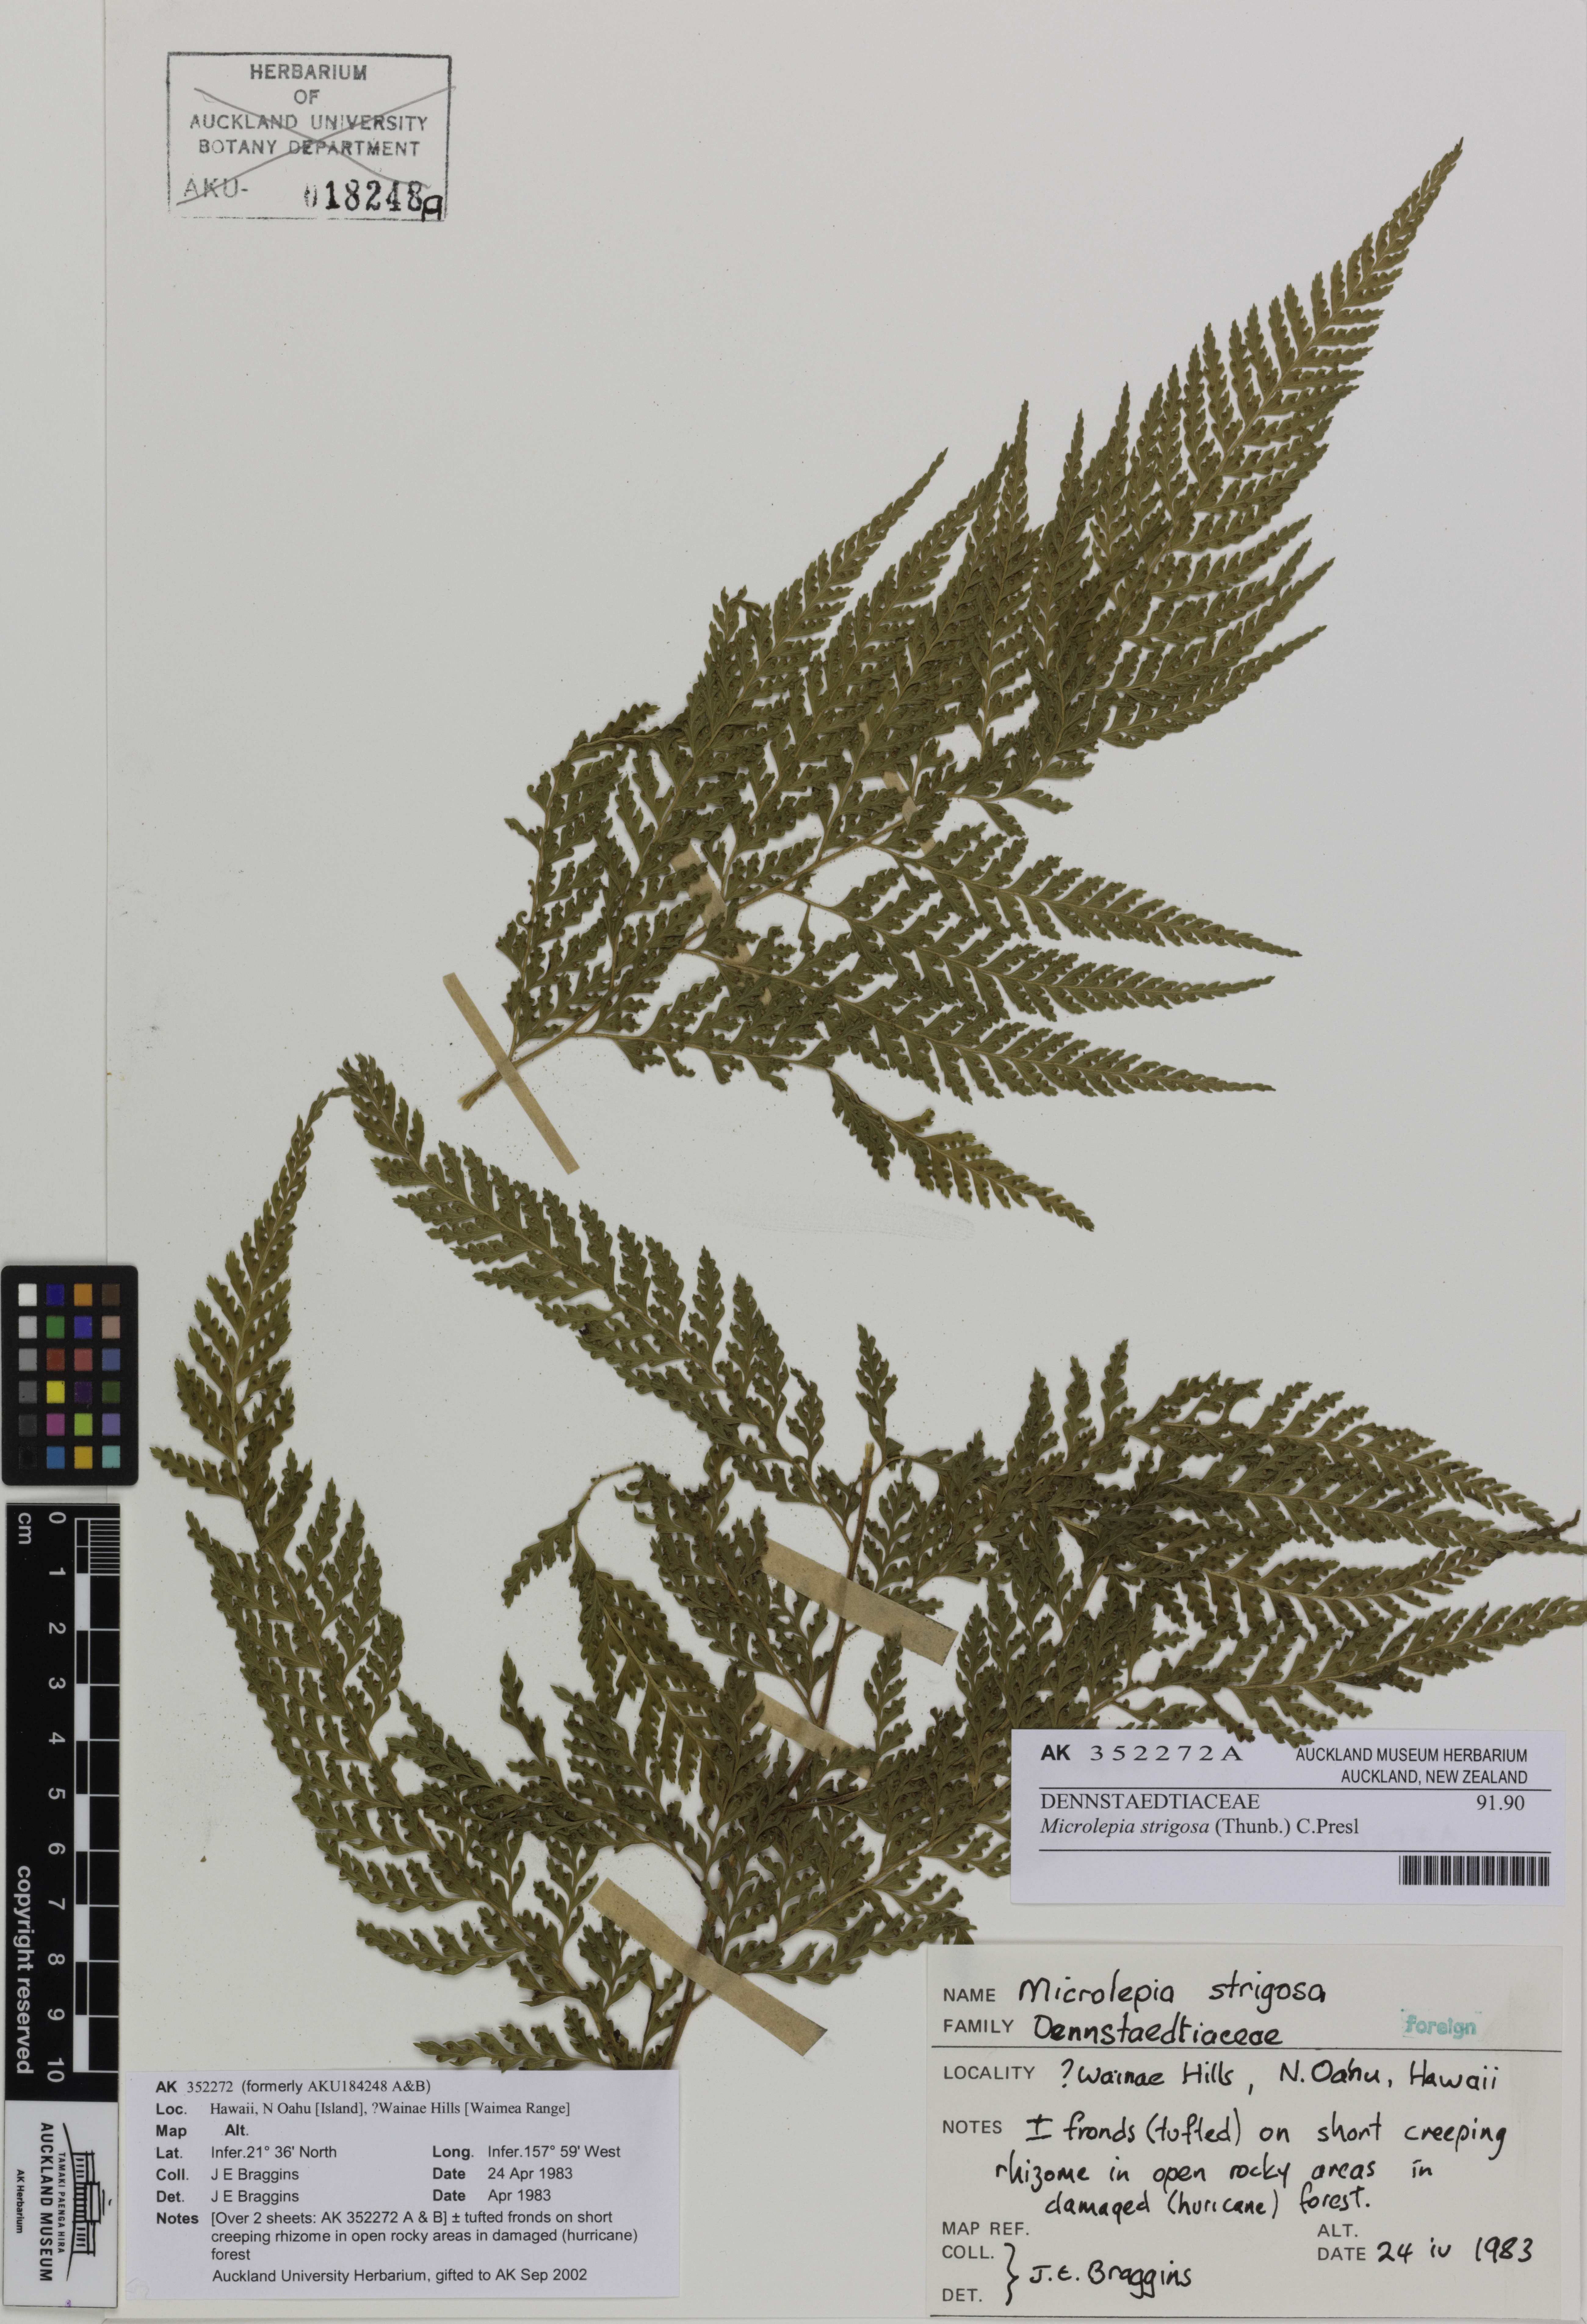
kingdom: Plantae
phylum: Tracheophyta
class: Polypodiopsida
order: Polypodiales
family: Dennstaedtiaceae
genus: Microlepia
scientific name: Microlepia strigosa
